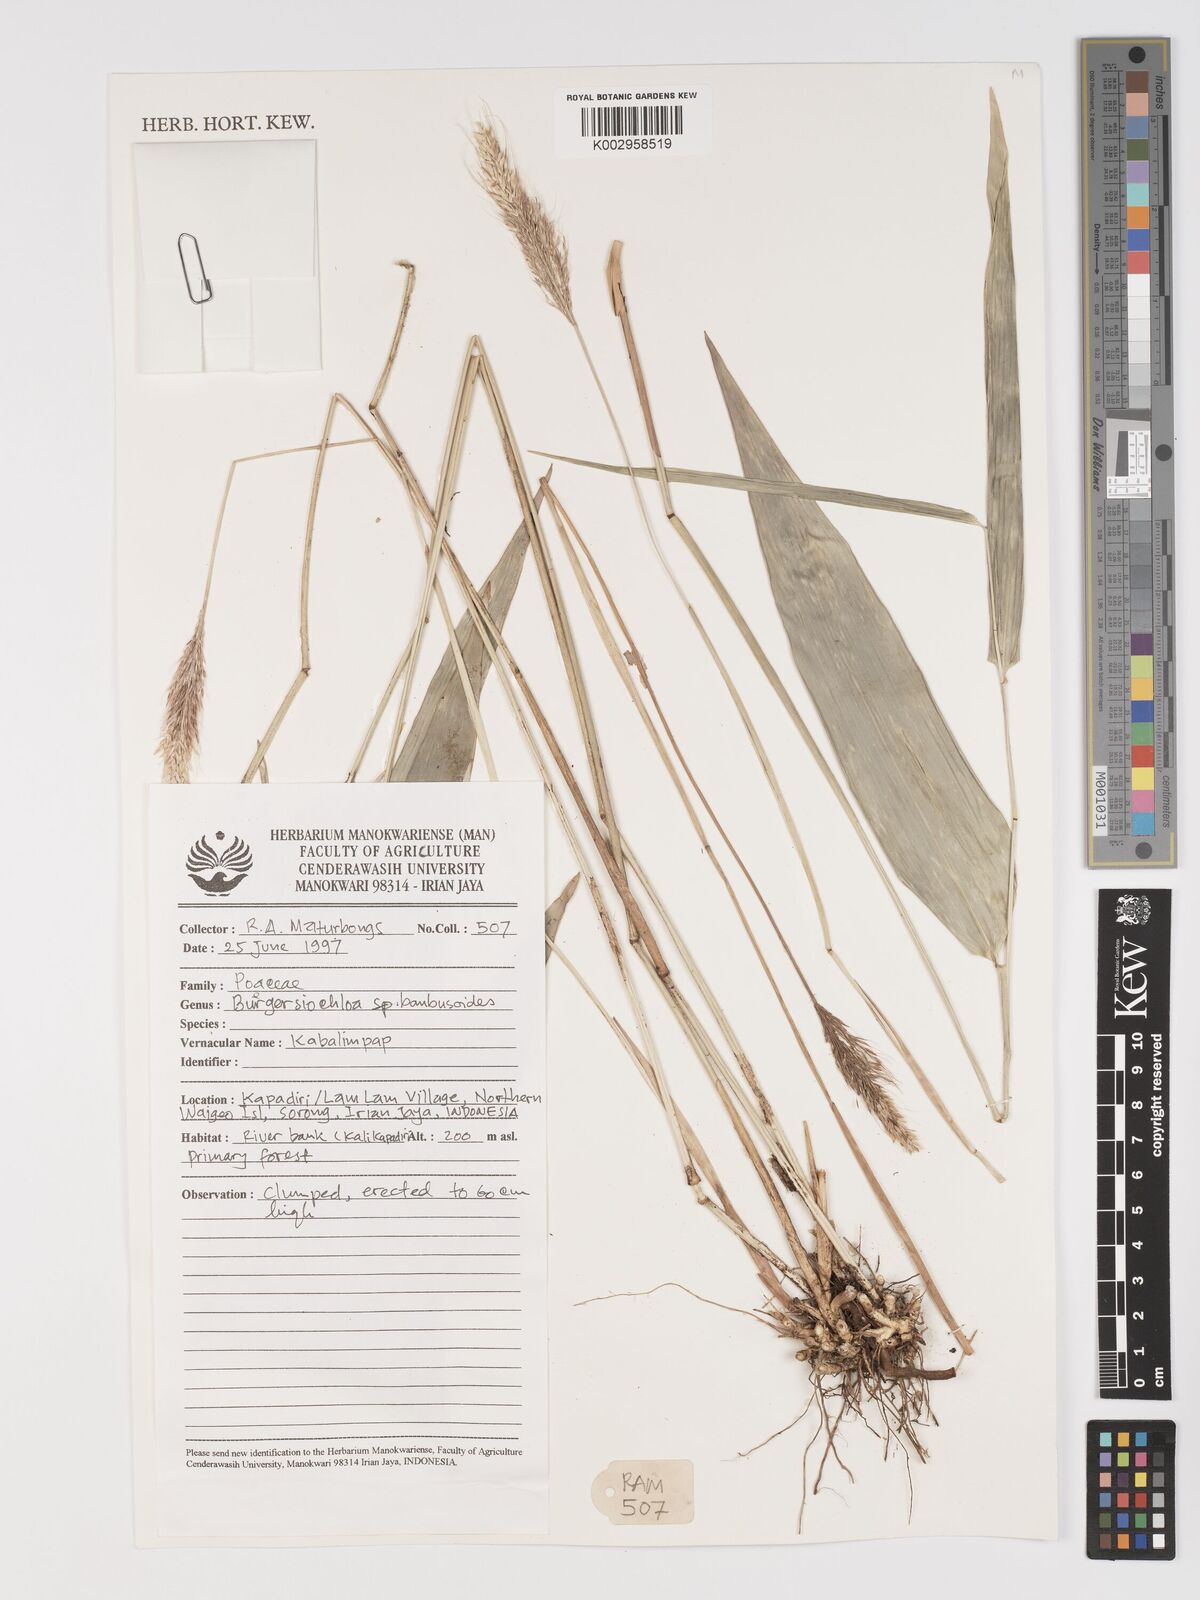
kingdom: Plantae
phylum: Tracheophyta
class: Liliopsida
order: Poales
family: Poaceae
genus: Buergersiochloa
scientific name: Buergersiochloa bambusoides
